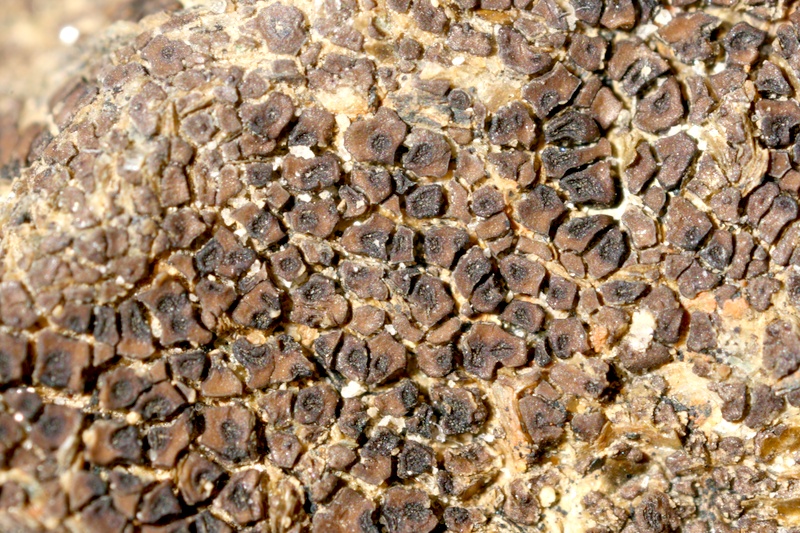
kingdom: Fungi
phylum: Ascomycota
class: Lecanoromycetes
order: Acarosporales
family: Acarosporaceae
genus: Acarospora
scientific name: Acarospora
